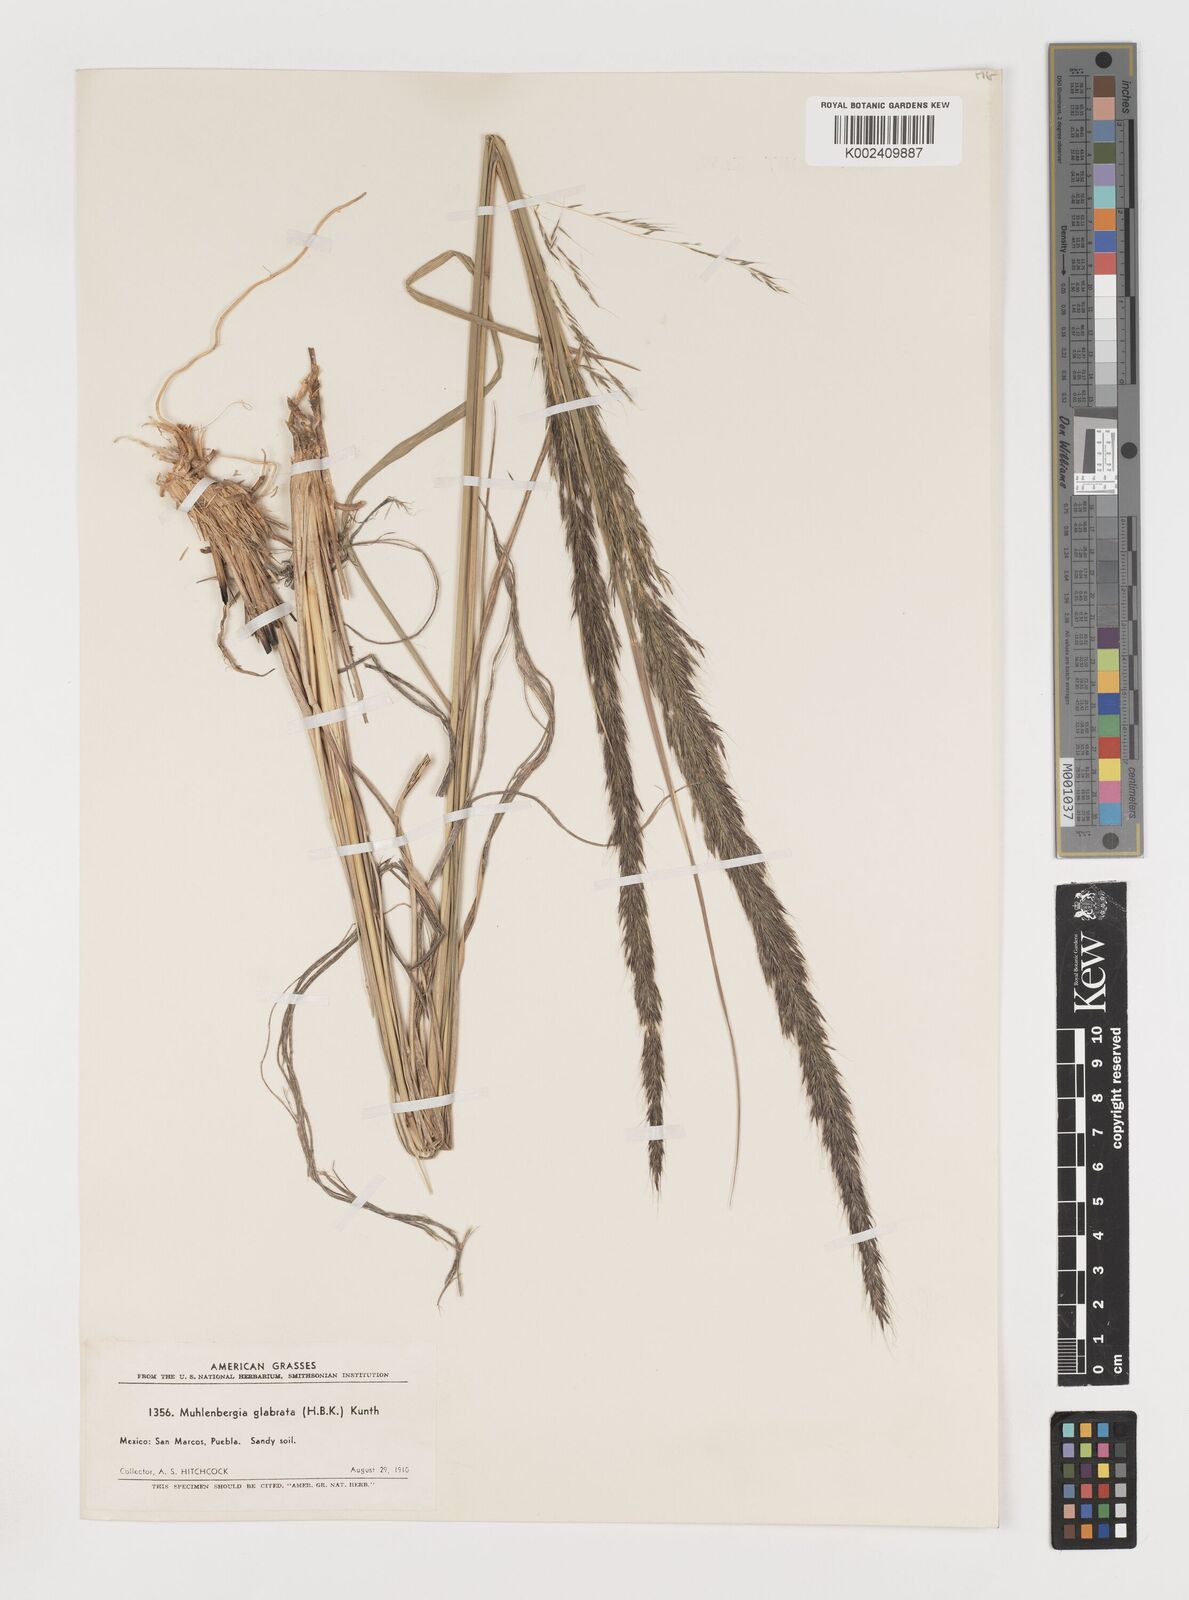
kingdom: Plantae
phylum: Tracheophyta
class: Liliopsida
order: Poales
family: Poaceae
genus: Muhlenbergia
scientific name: Muhlenbergia rigida
